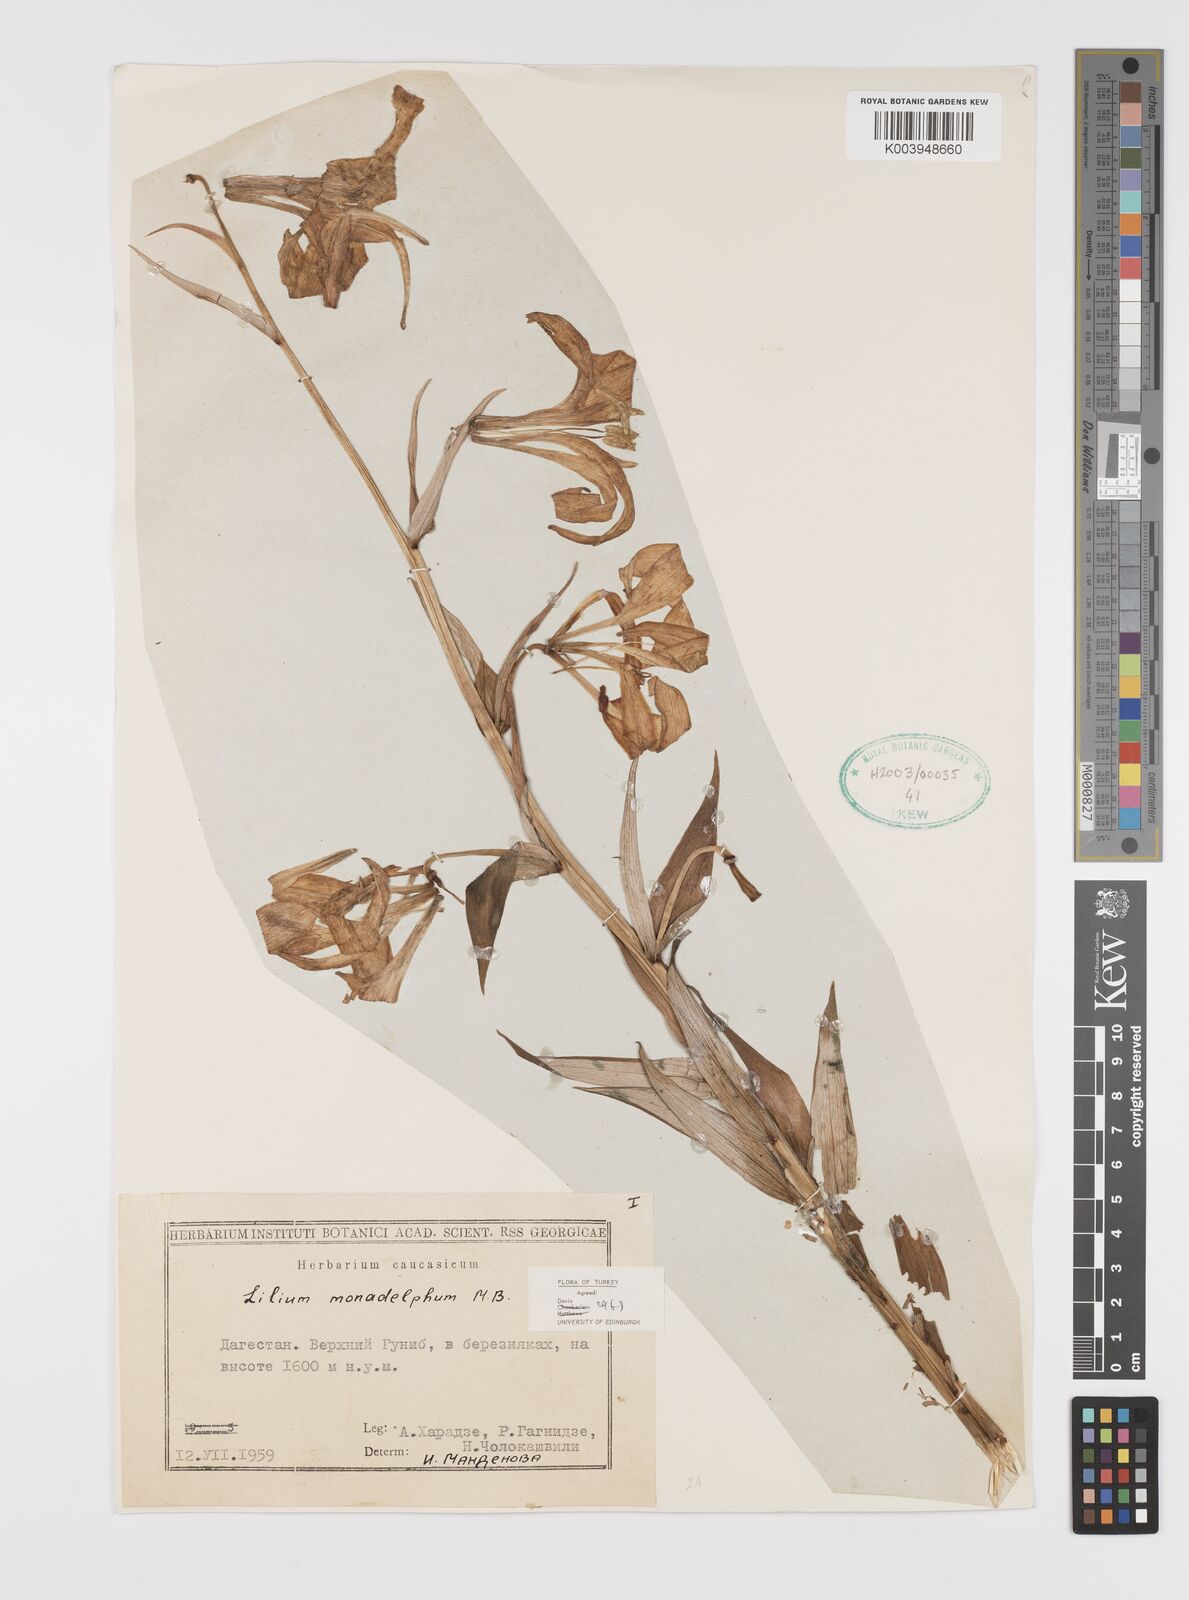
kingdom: Plantae
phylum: Tracheophyta
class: Liliopsida
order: Liliales
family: Liliaceae
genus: Lilium
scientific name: Lilium monadelphum
